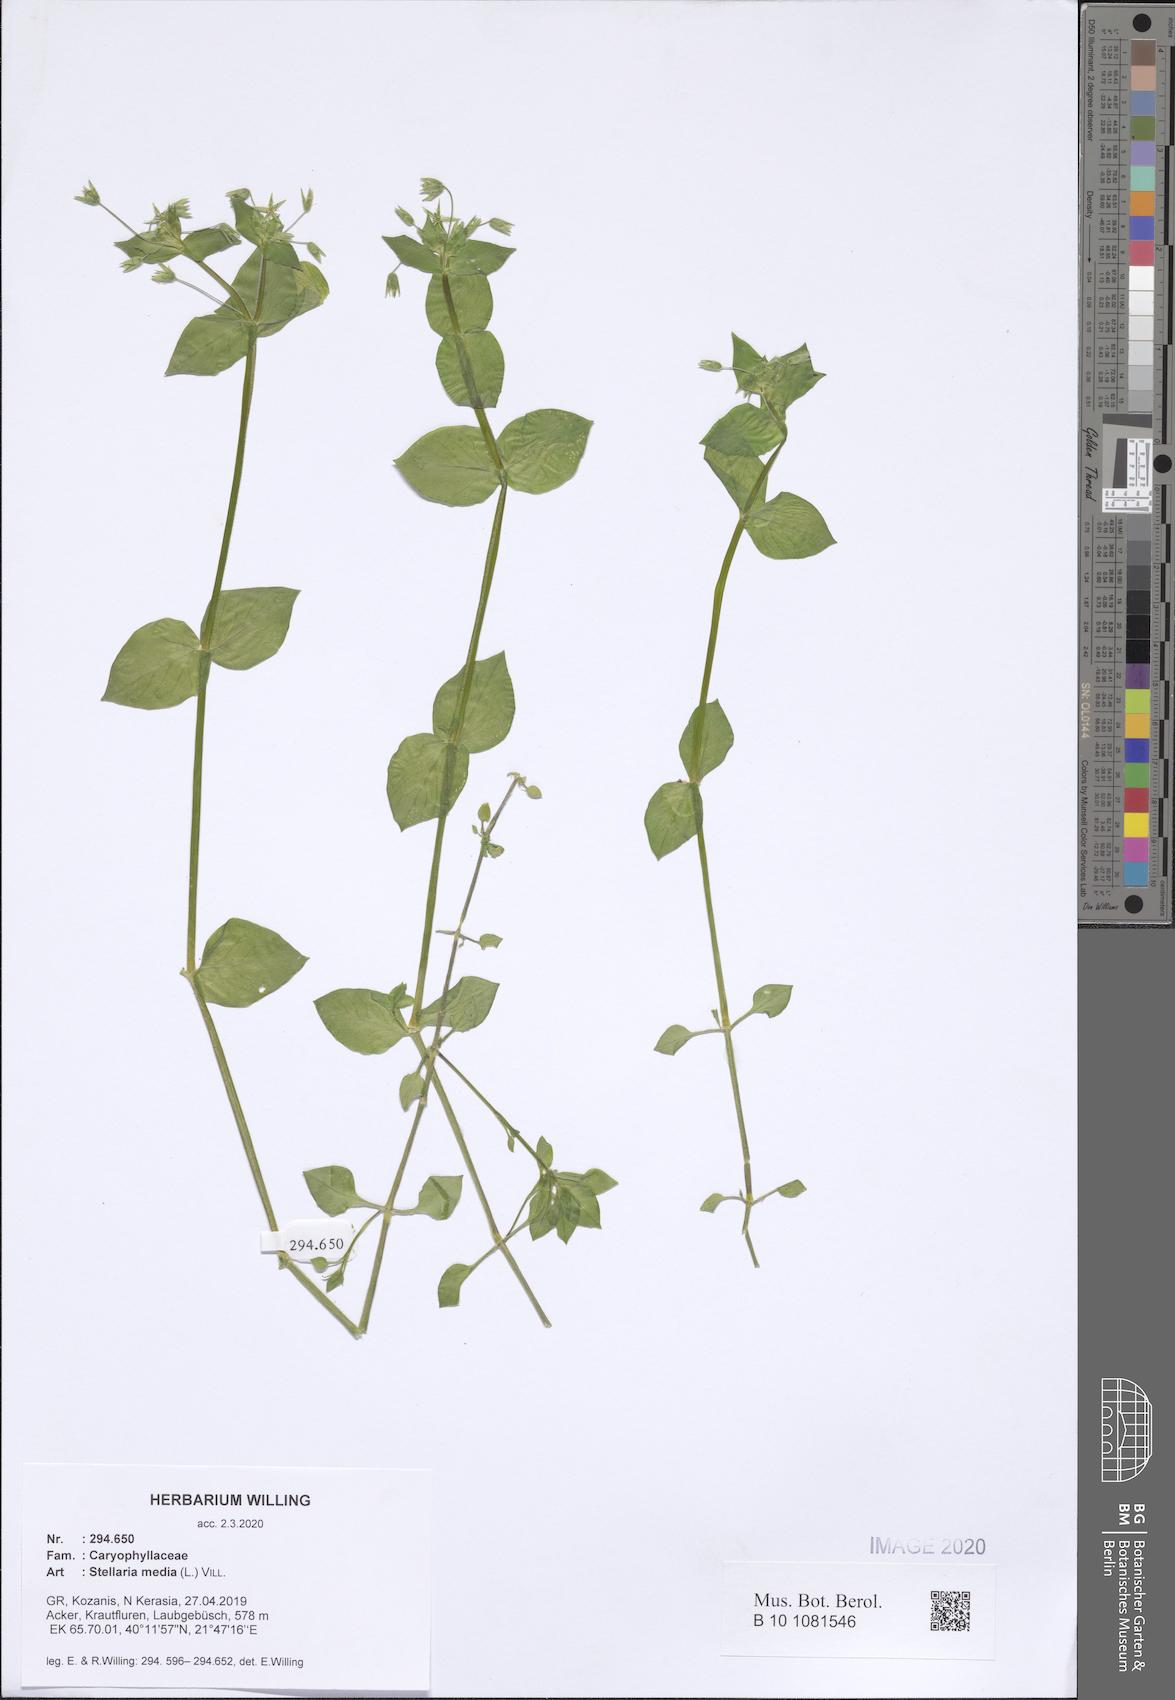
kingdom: Plantae
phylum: Tracheophyta
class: Magnoliopsida
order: Caryophyllales
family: Caryophyllaceae
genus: Stellaria
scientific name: Stellaria media
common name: Common chickweed
